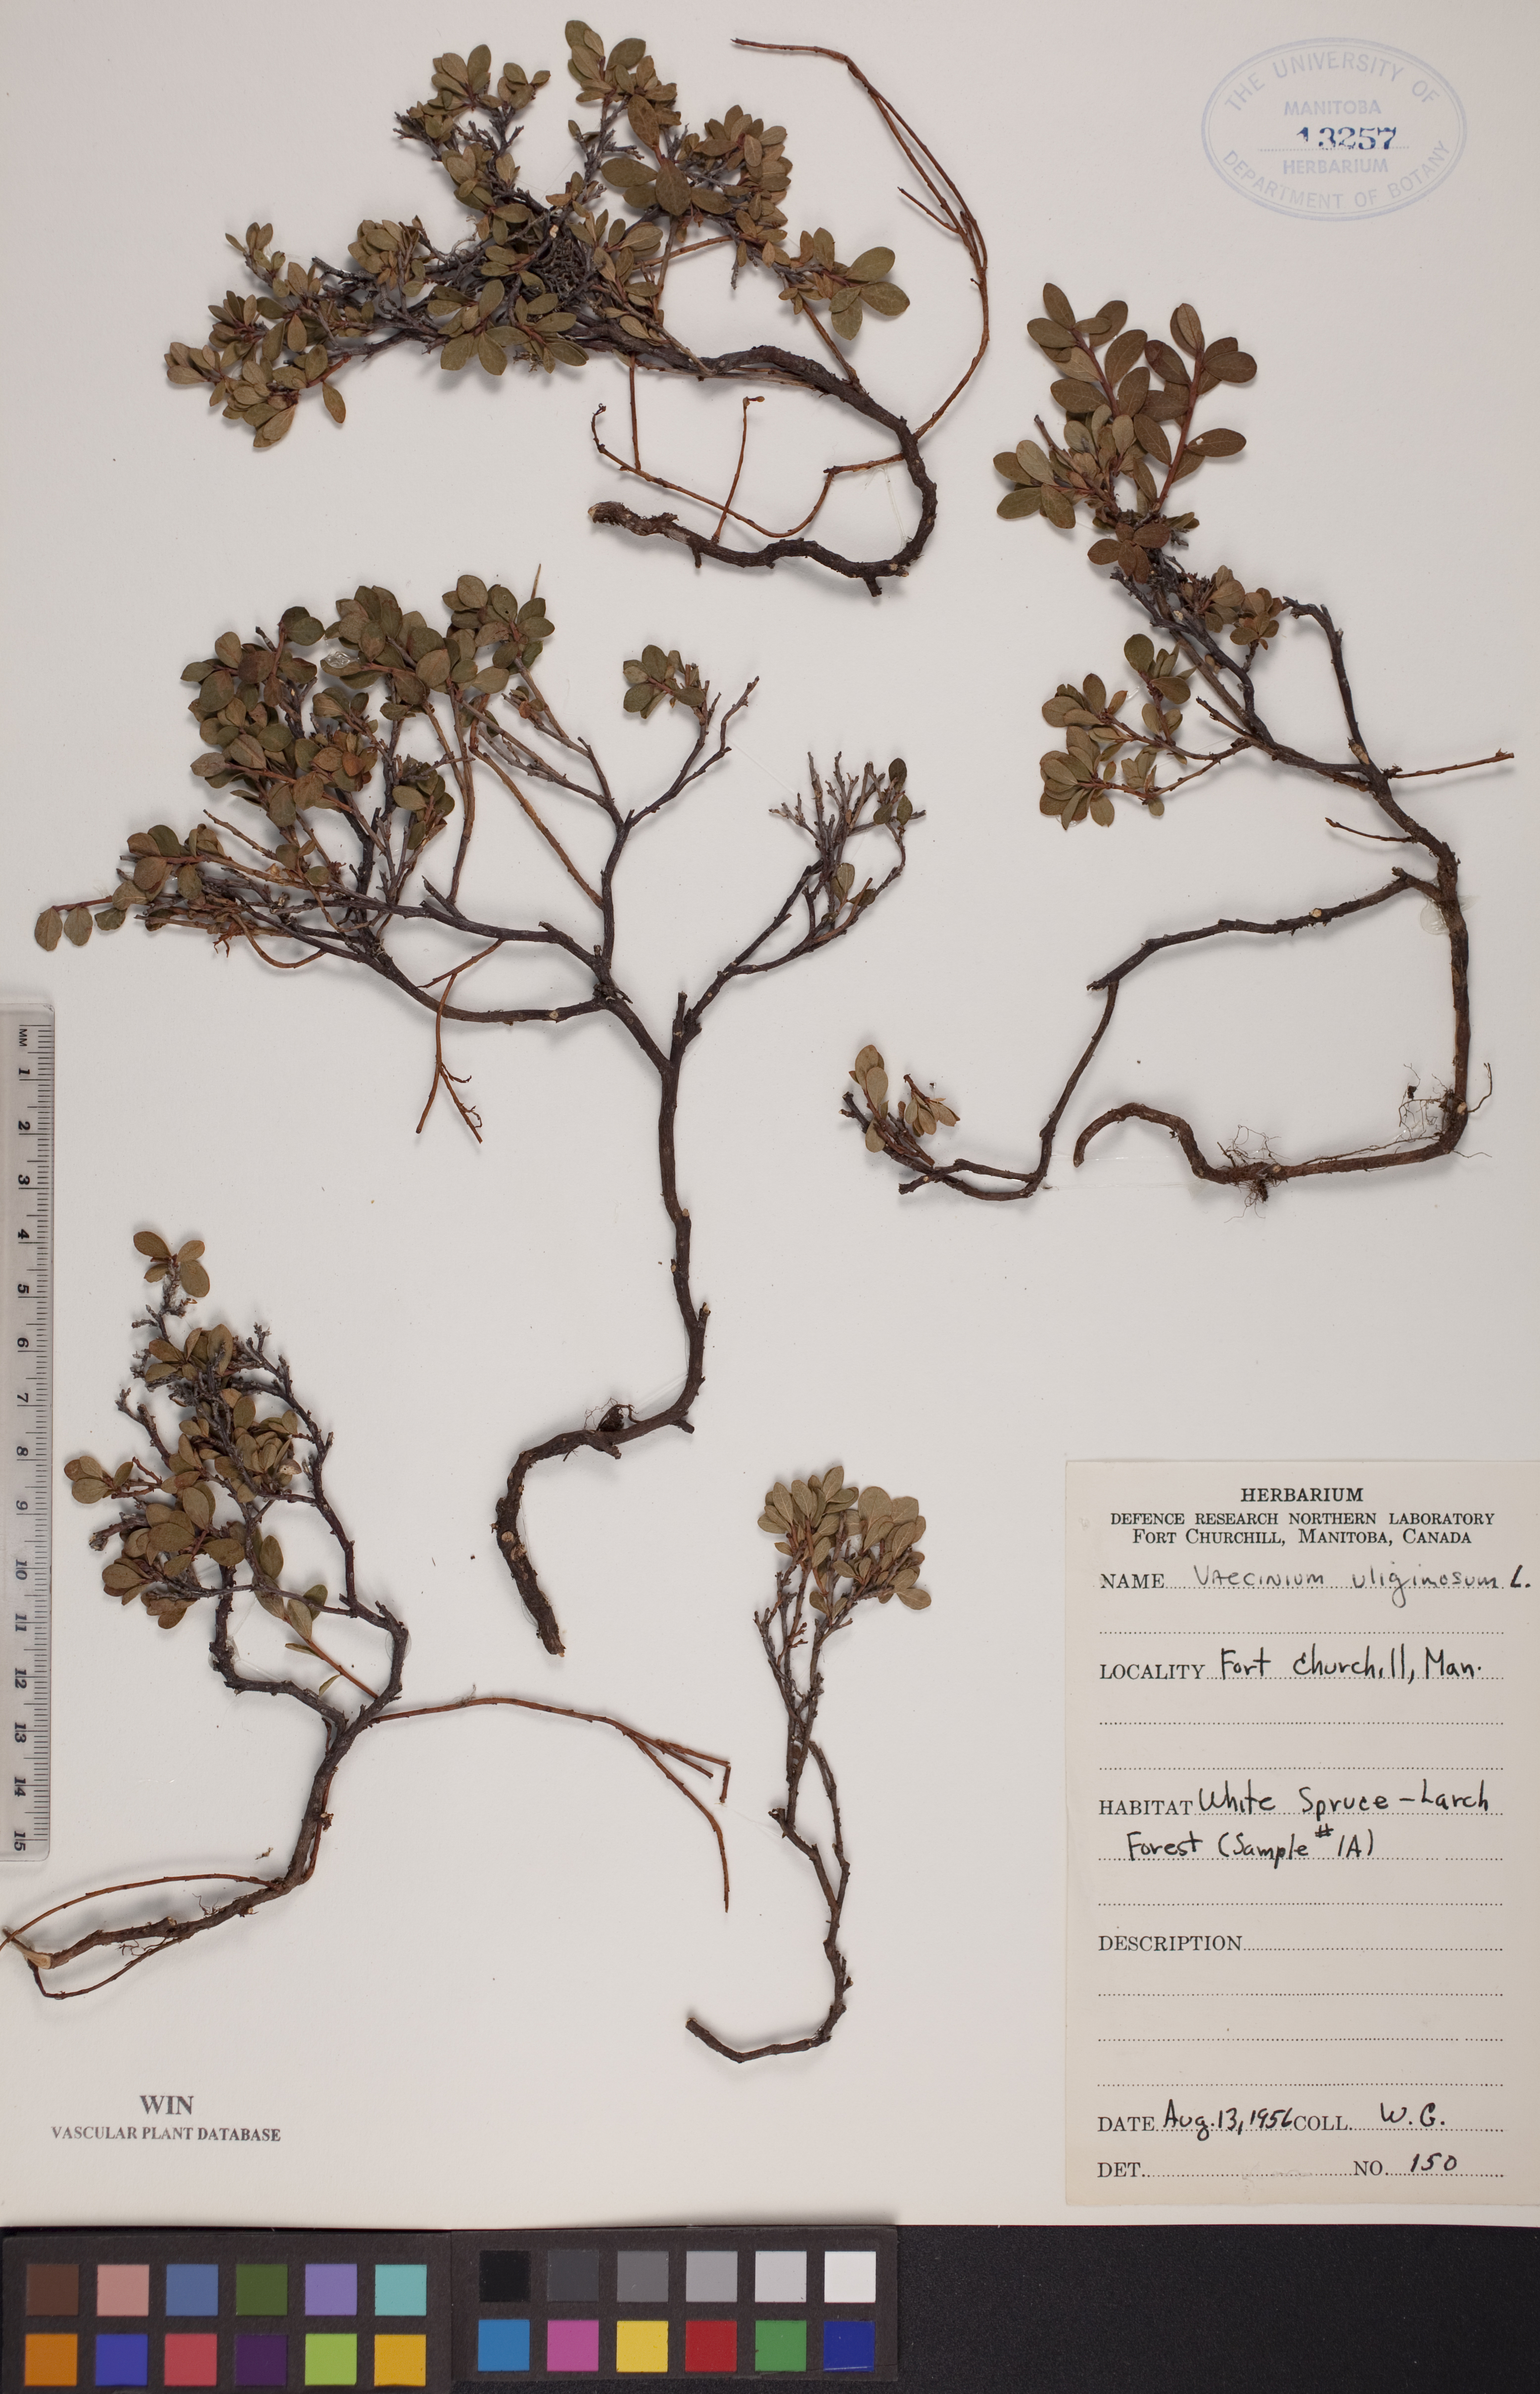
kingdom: Plantae
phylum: Tracheophyta
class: Magnoliopsida
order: Ericales
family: Ericaceae
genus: Vaccinium
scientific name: Vaccinium uliginosum
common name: Bog bilberry
